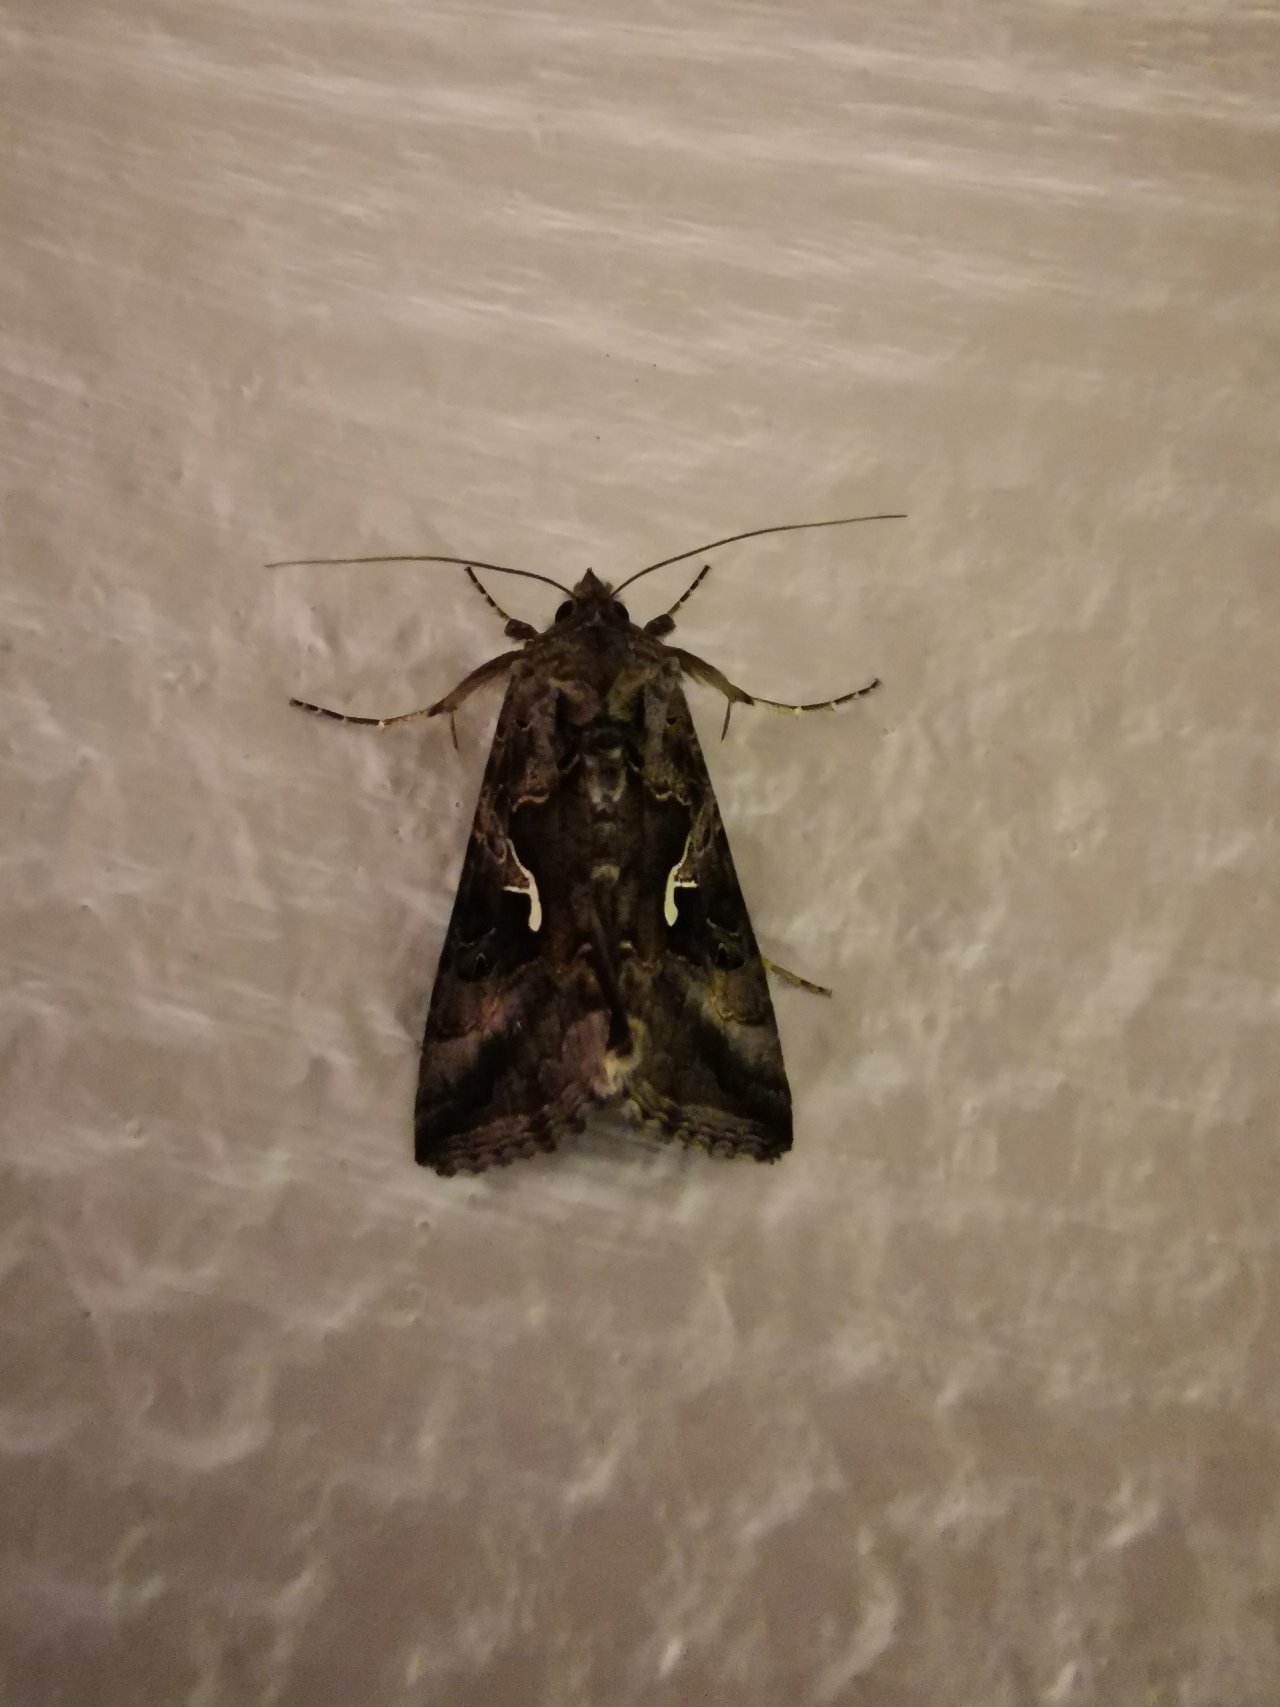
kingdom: Animalia
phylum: Arthropoda
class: Insecta
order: Lepidoptera
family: Noctuidae
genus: Autographa
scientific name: Autographa gamma
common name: Gammaugle
